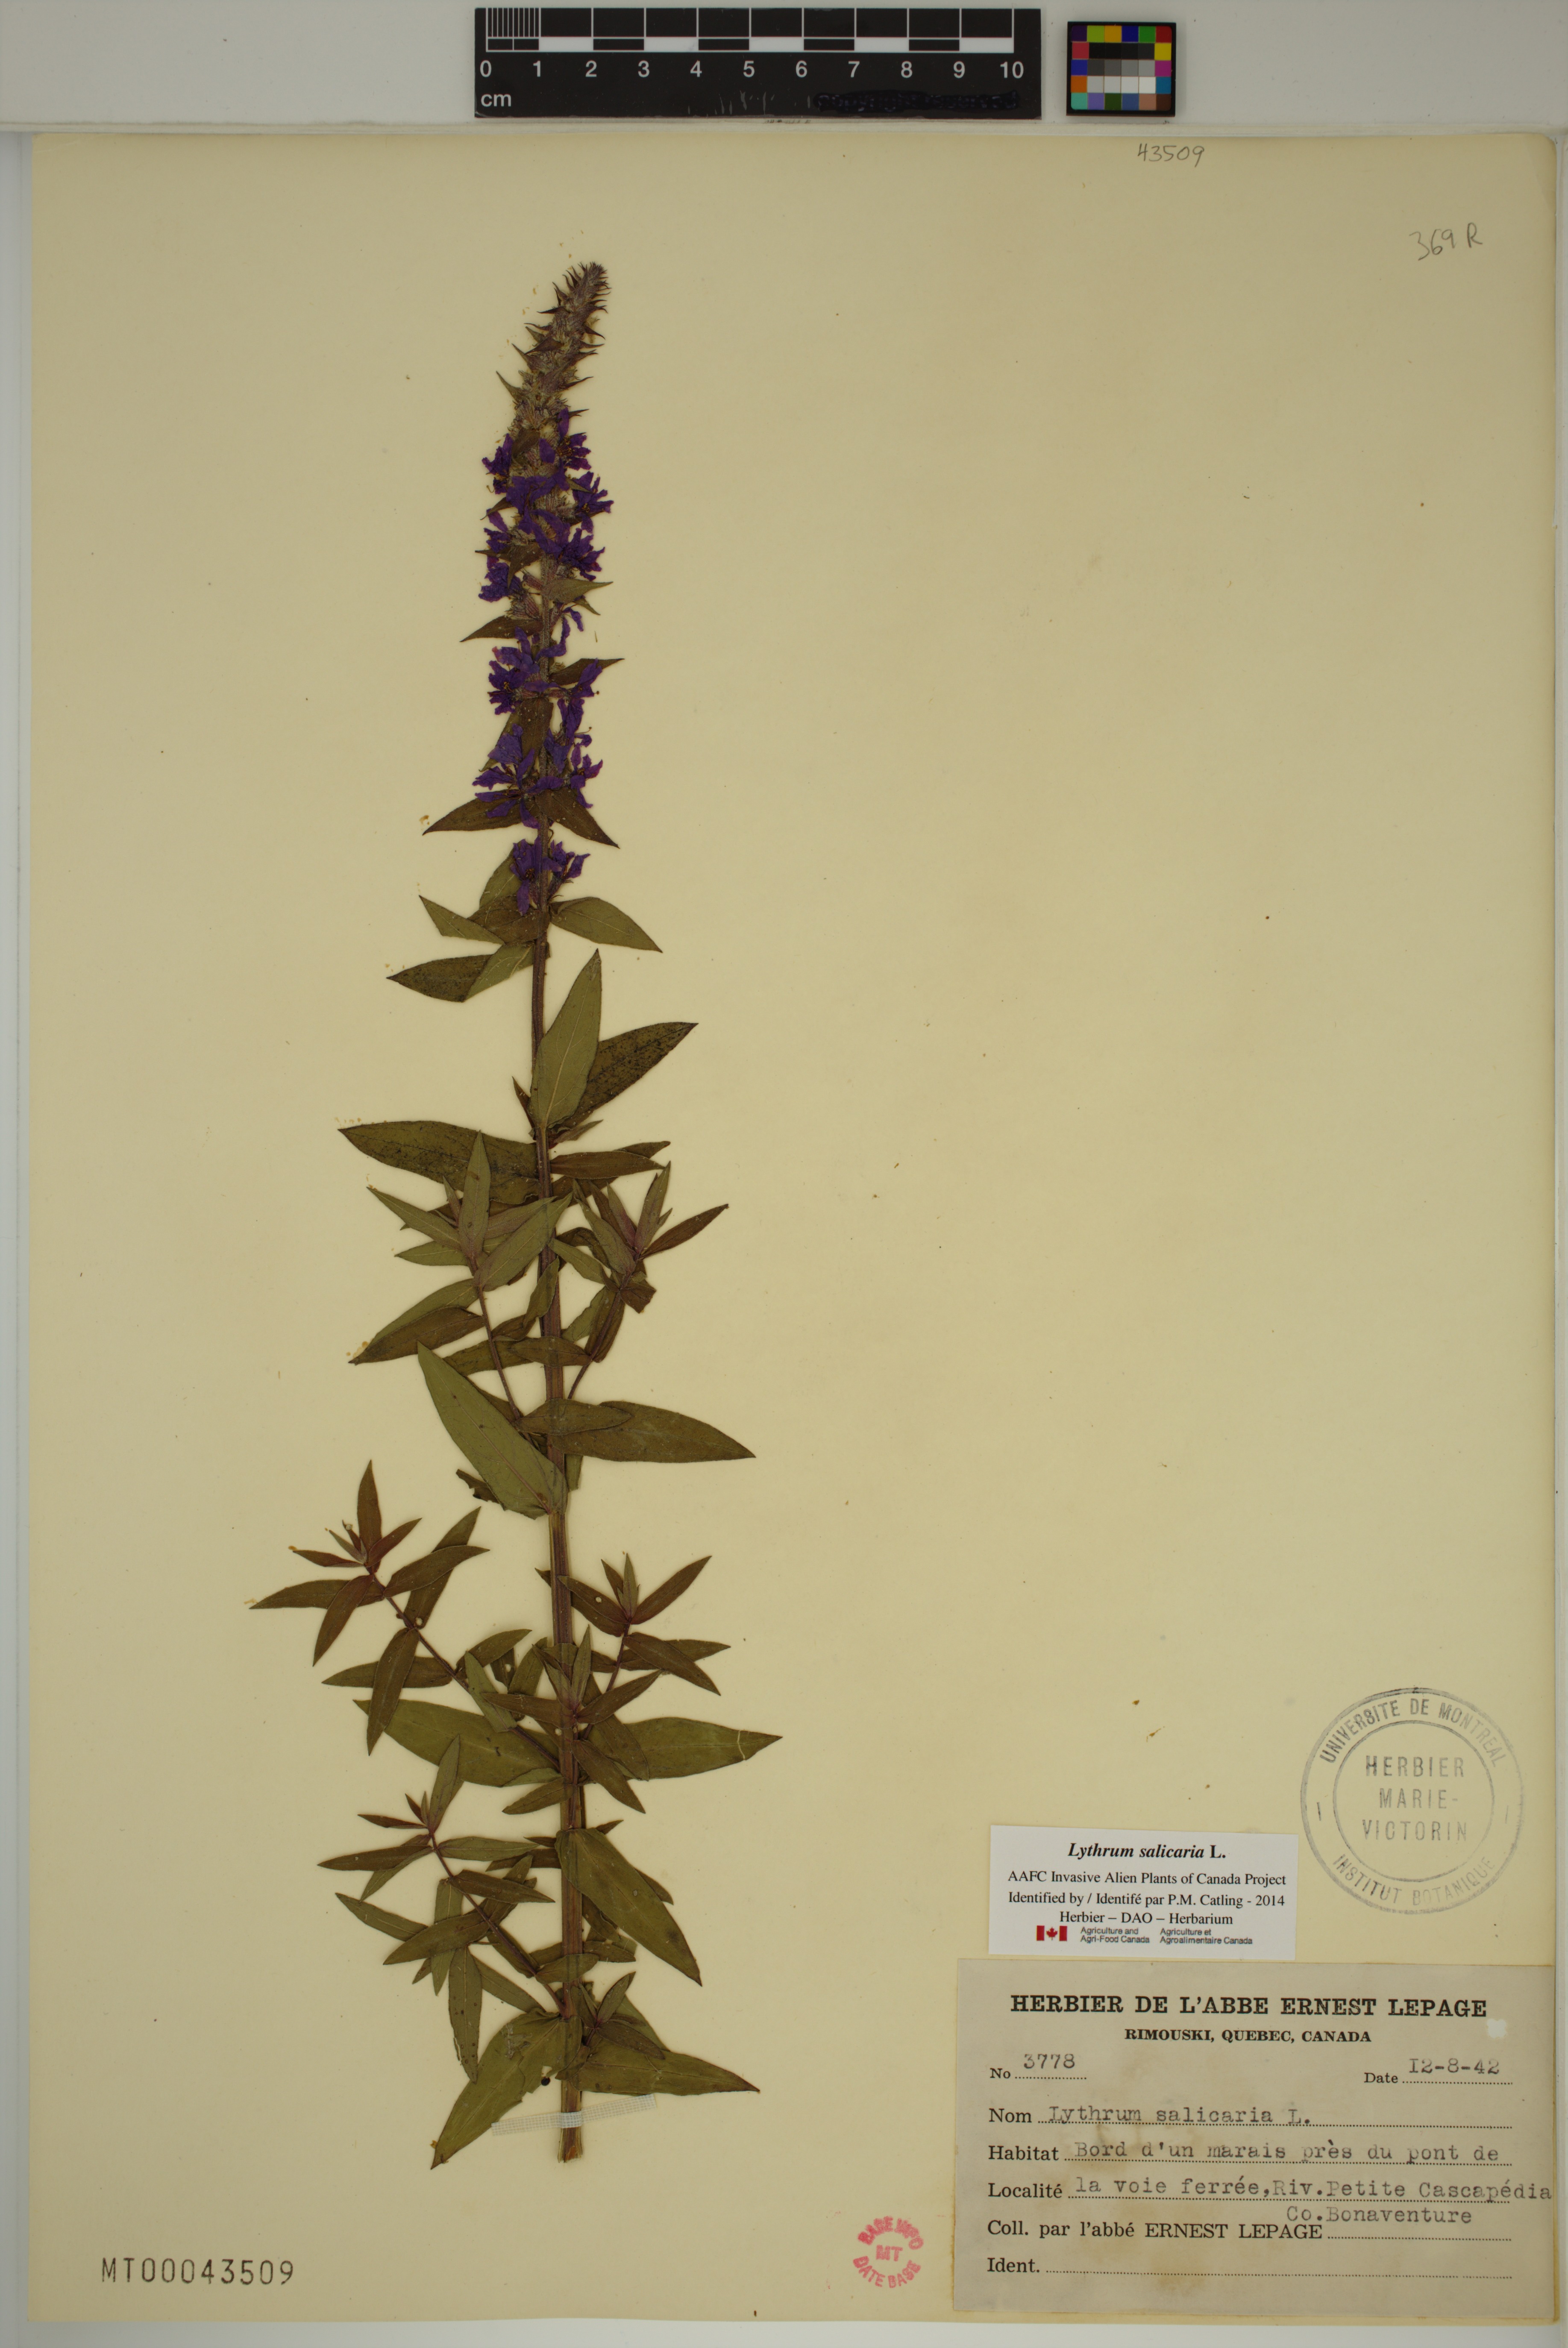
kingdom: Plantae
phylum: Tracheophyta
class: Magnoliopsida
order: Myrtales
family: Lythraceae
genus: Lythrum
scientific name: Lythrum salicaria
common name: Purple loosestrife
